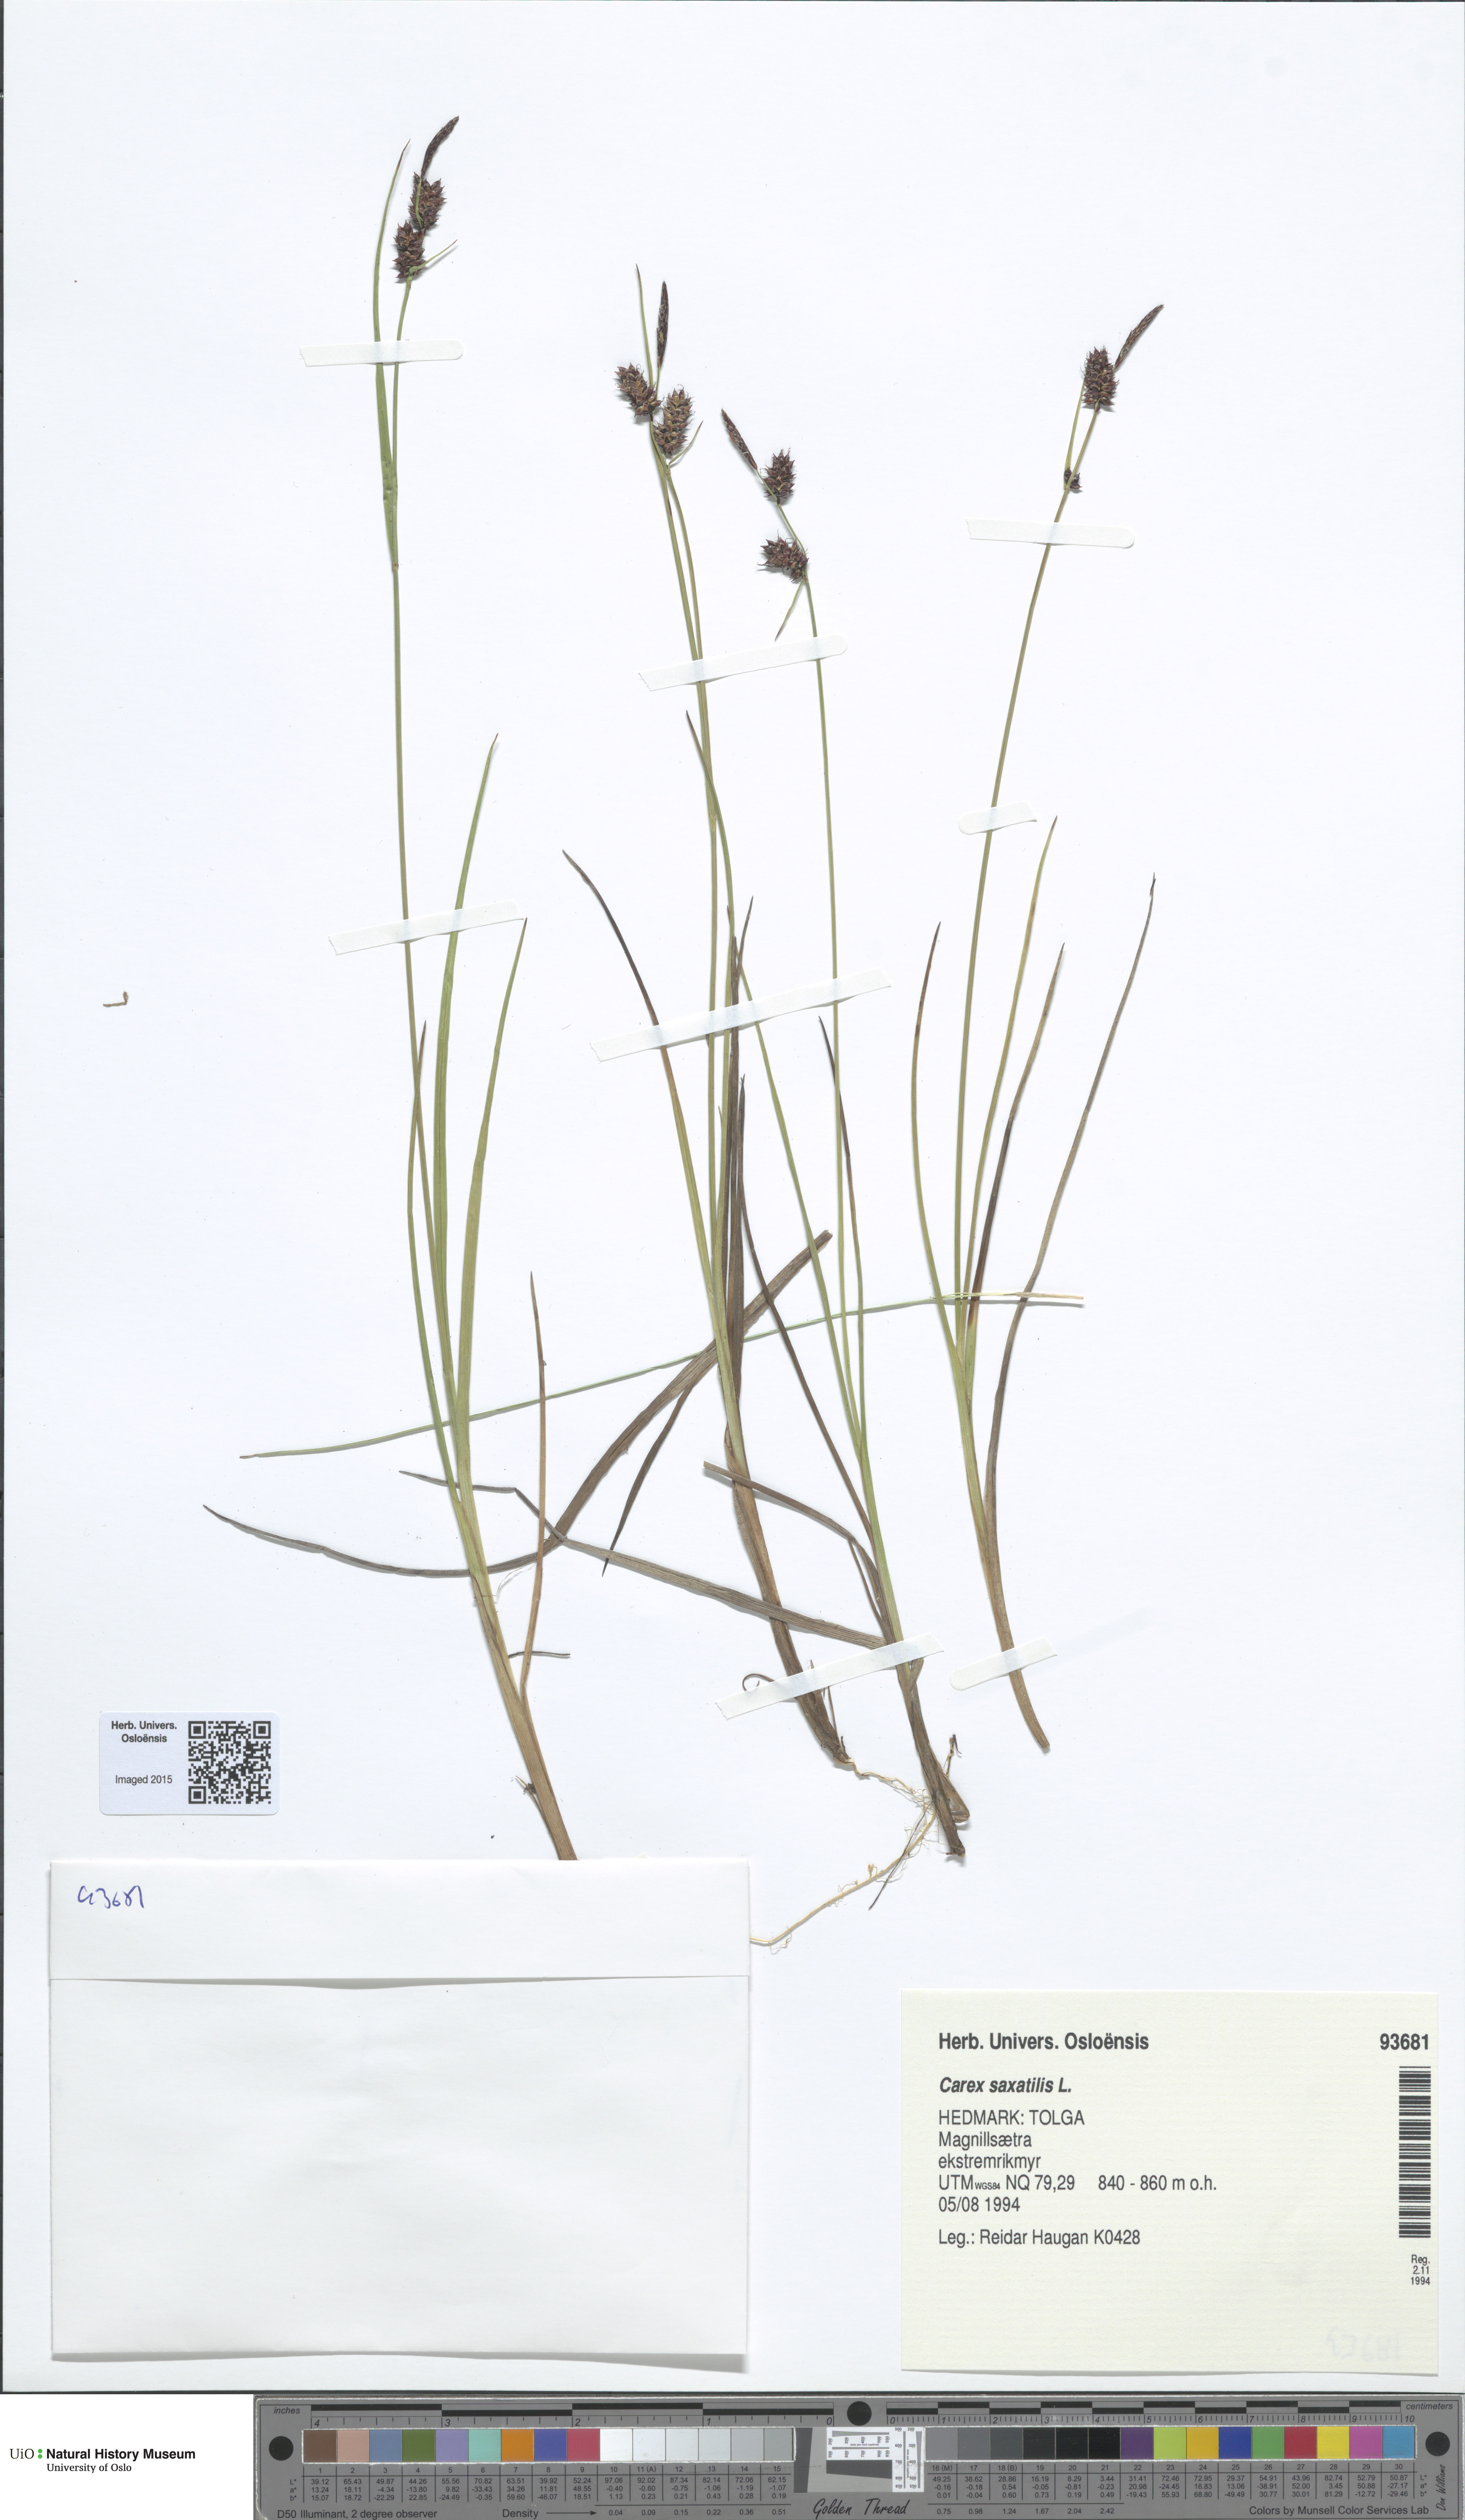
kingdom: Plantae
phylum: Tracheophyta
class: Liliopsida
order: Poales
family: Cyperaceae
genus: Carex
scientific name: Carex saxatilis
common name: Russet sedge
